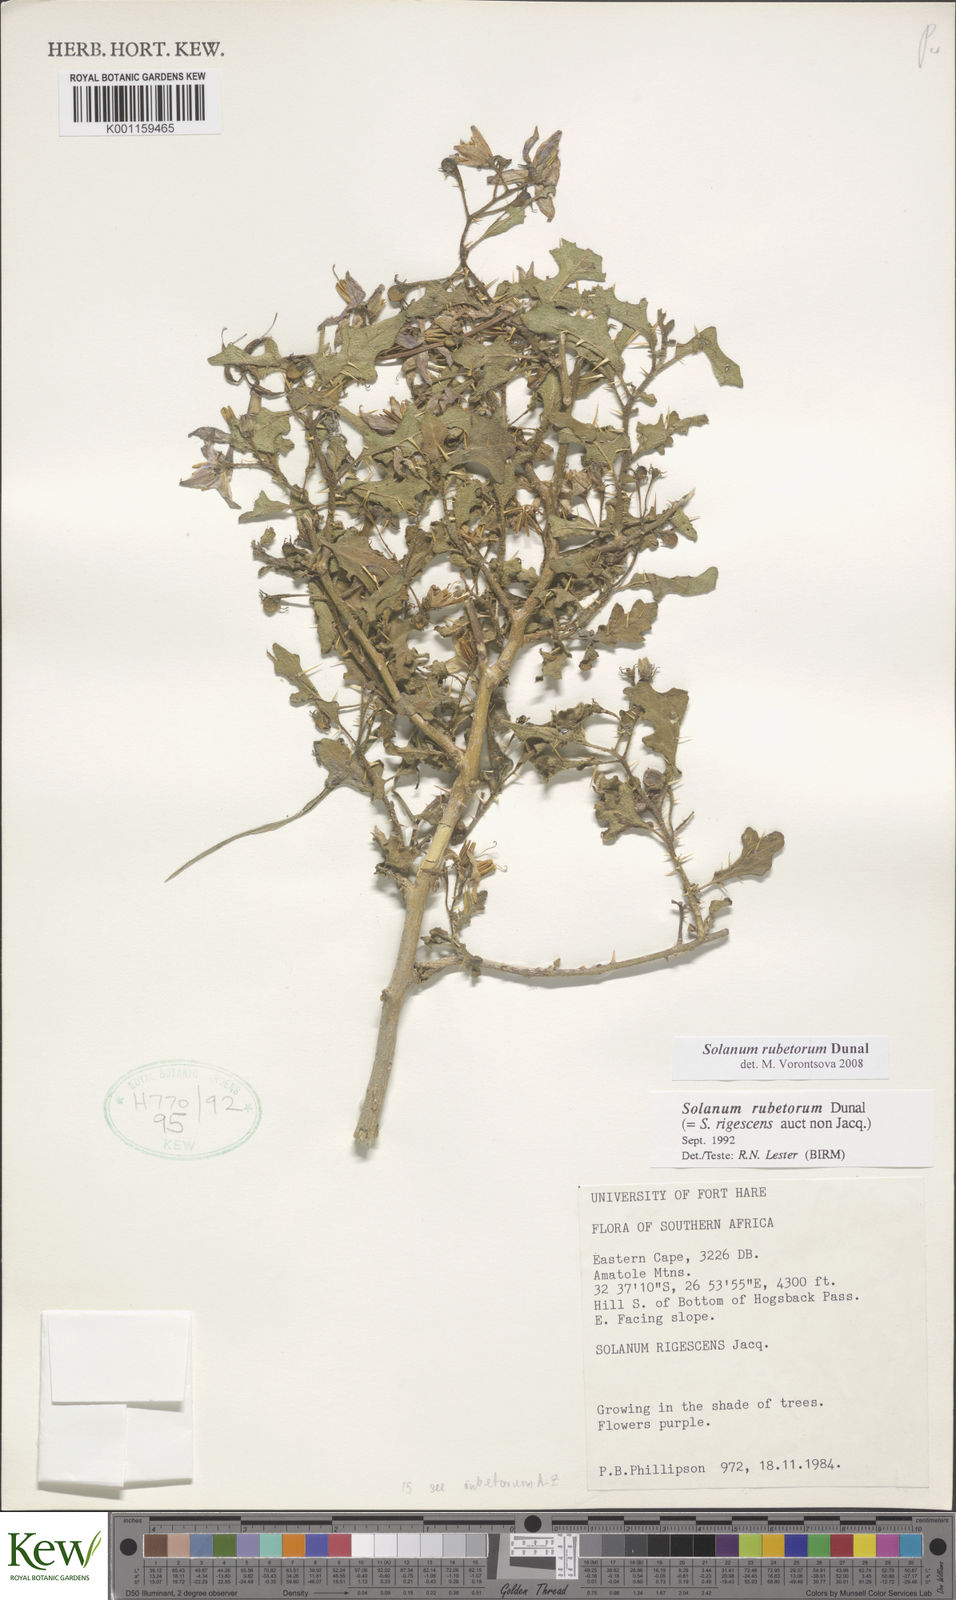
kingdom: Plantae
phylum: Tracheophyta
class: Magnoliopsida
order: Solanales
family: Solanaceae
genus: Solanum
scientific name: Solanum rubetorum
